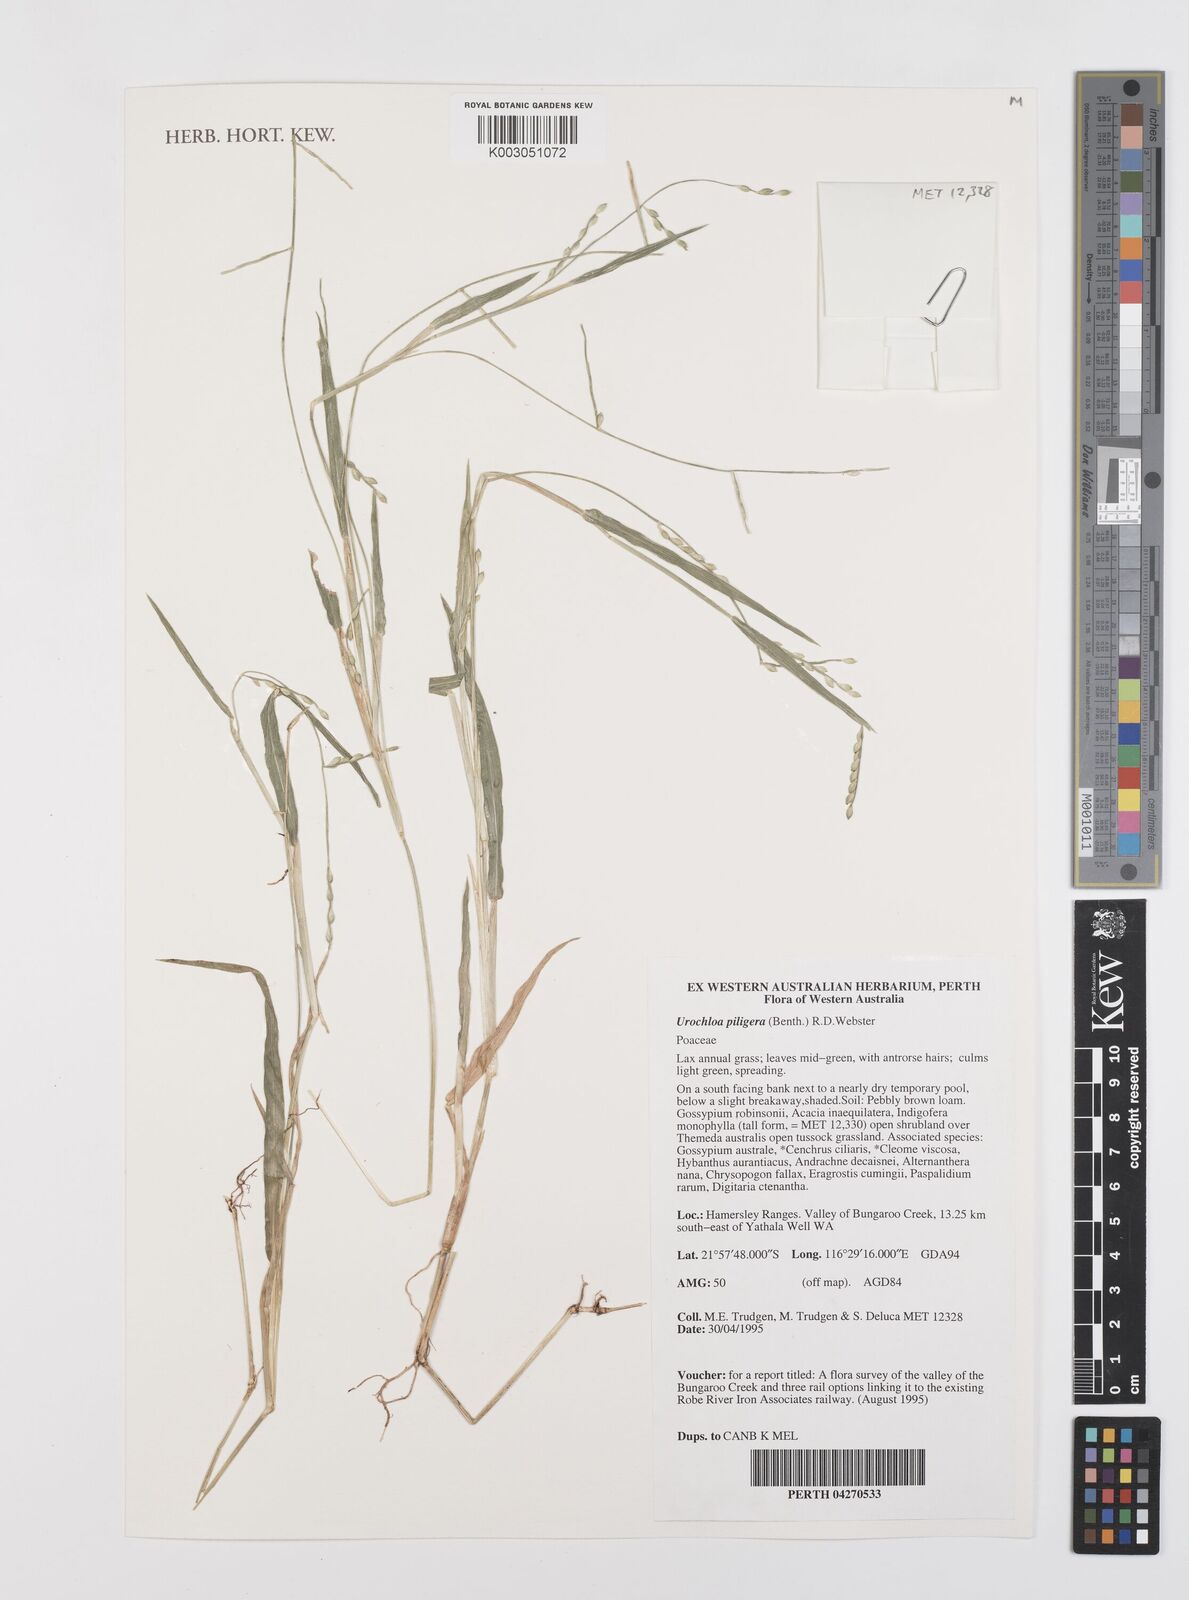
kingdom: Plantae
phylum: Tracheophyta
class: Liliopsida
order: Poales
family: Poaceae
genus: Urochloa
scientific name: Urochloa piligera
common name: Wattle signalgrass
